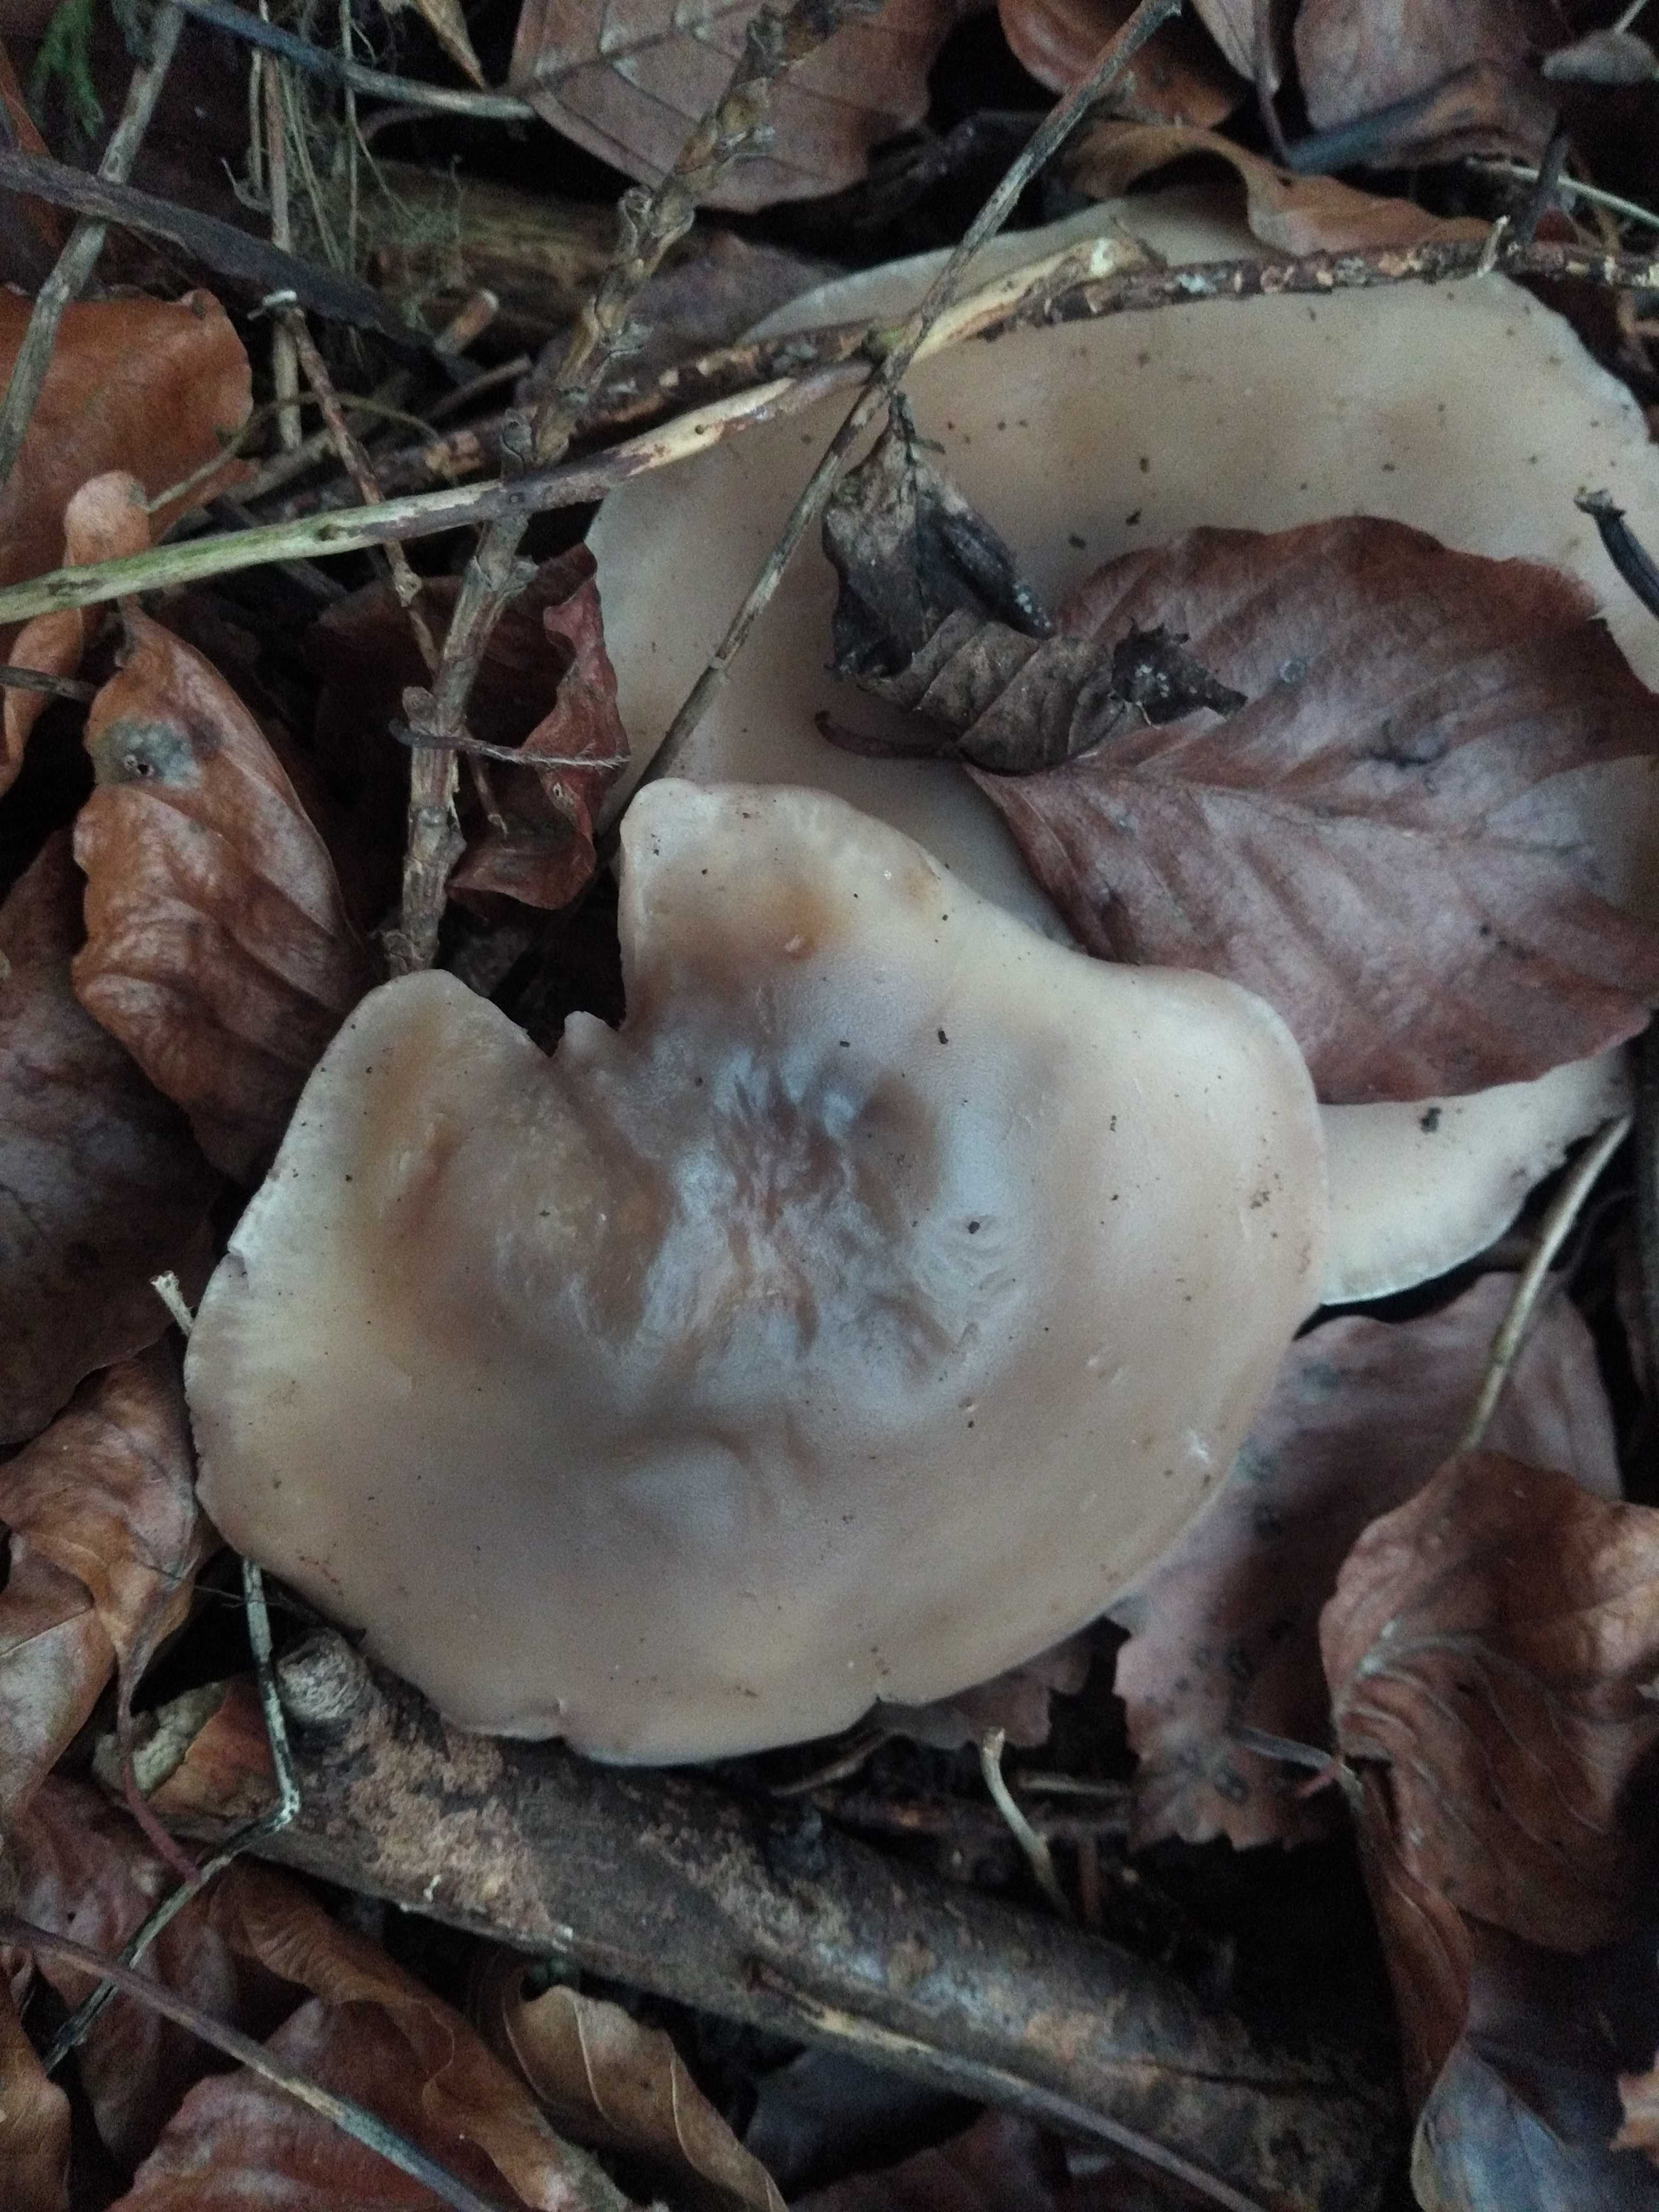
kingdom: Fungi
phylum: Basidiomycota
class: Agaricomycetes
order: Agaricales
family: Tricholomataceae
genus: Clitocybe
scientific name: Clitocybe nebularis
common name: tåge-tragthat
